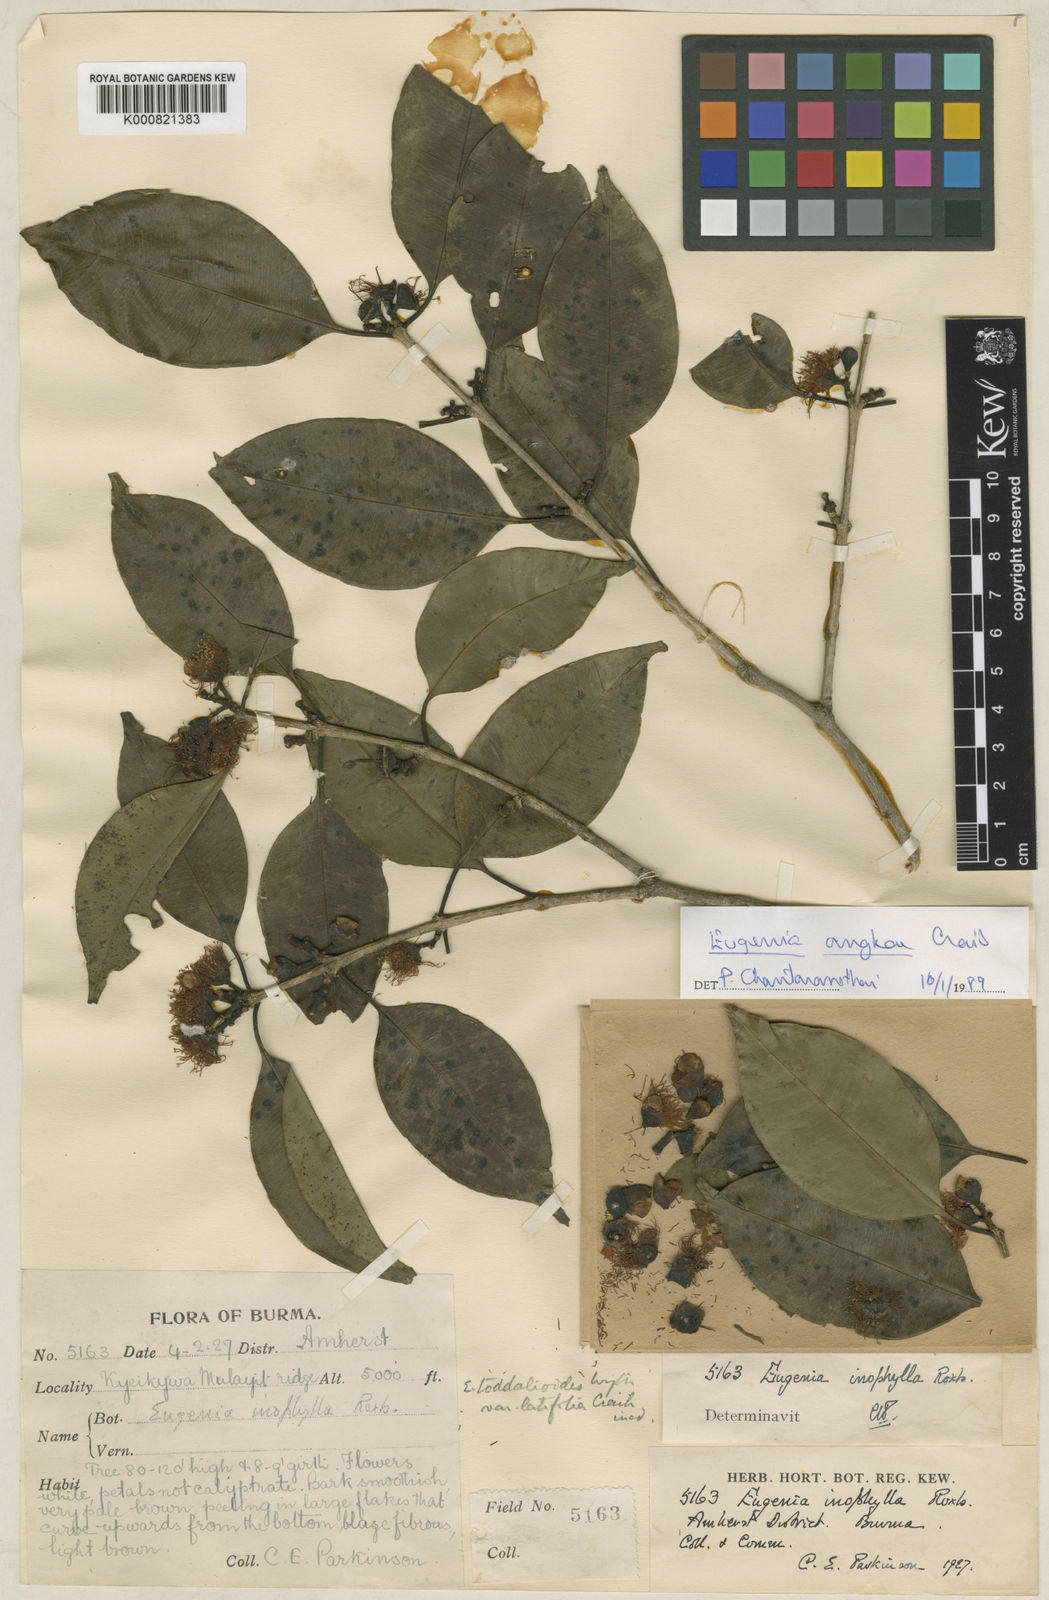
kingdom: Plantae
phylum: Tracheophyta
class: Magnoliopsida
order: Myrtales
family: Myrtaceae
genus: Syzygium
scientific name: Syzygium angkae
